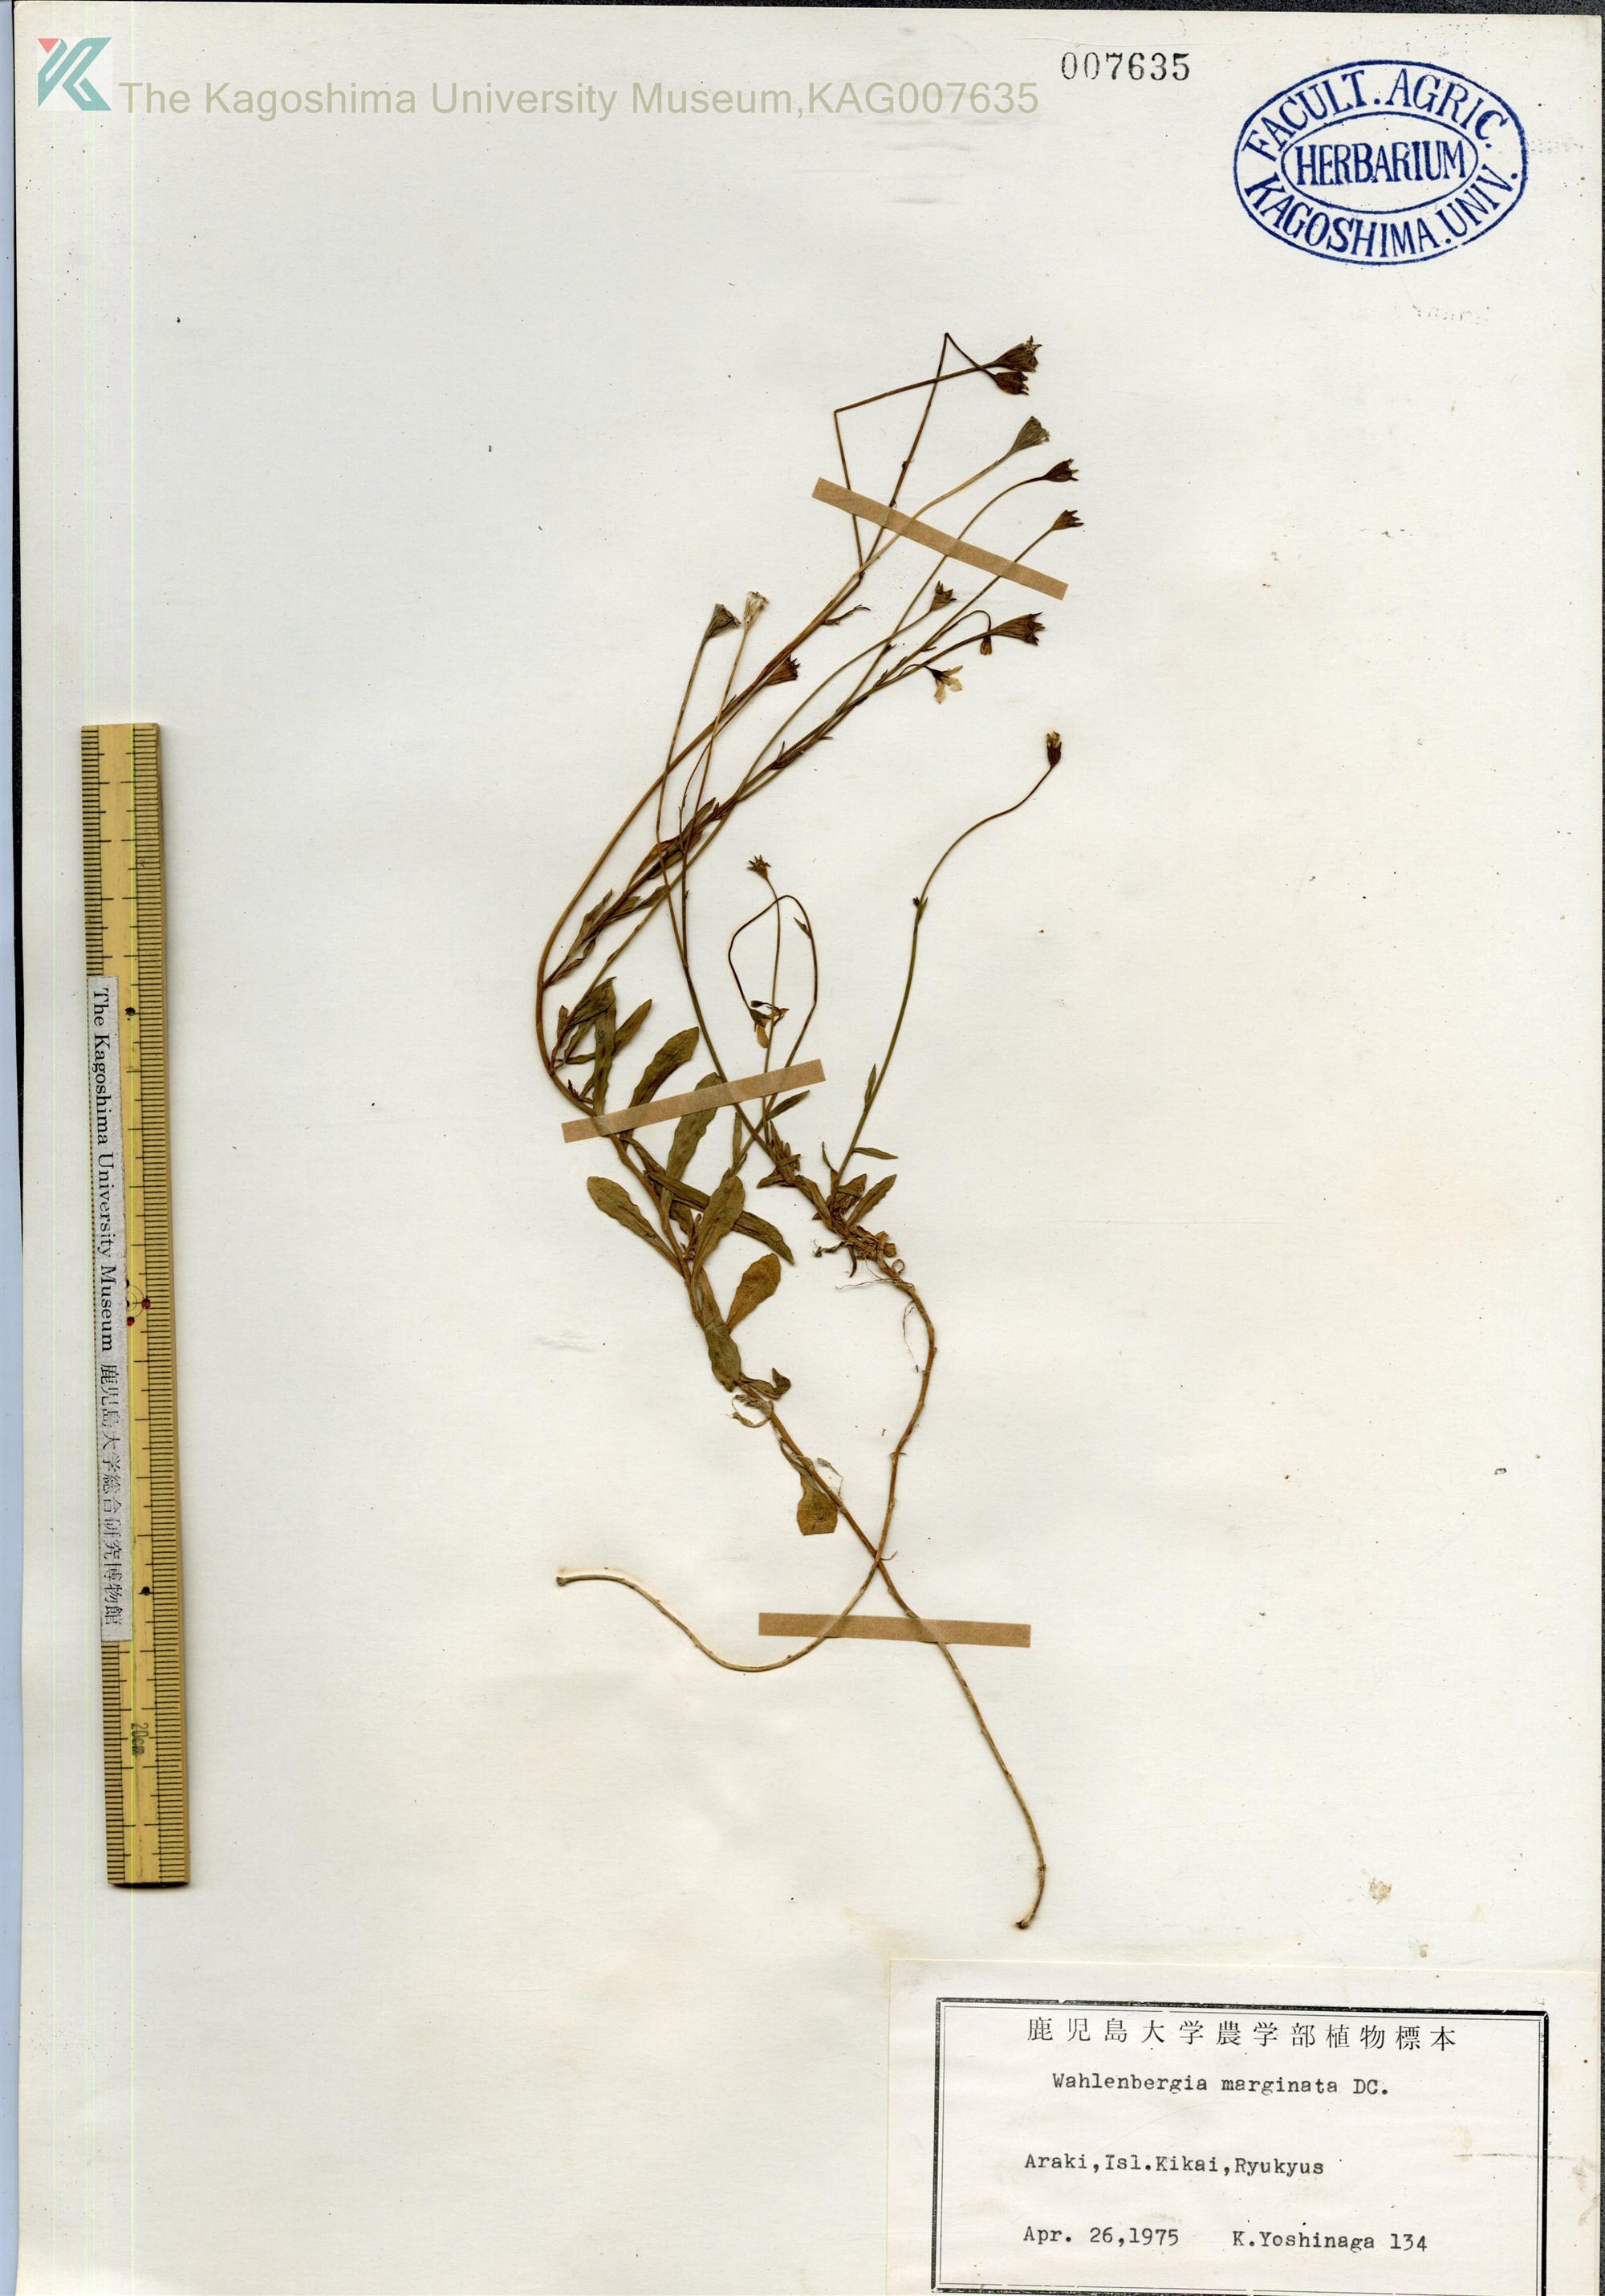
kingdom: Plantae
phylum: Tracheophyta
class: Magnoliopsida
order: Asterales
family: Campanulaceae
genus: Wahlenbergia
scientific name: Wahlenbergia marginata
